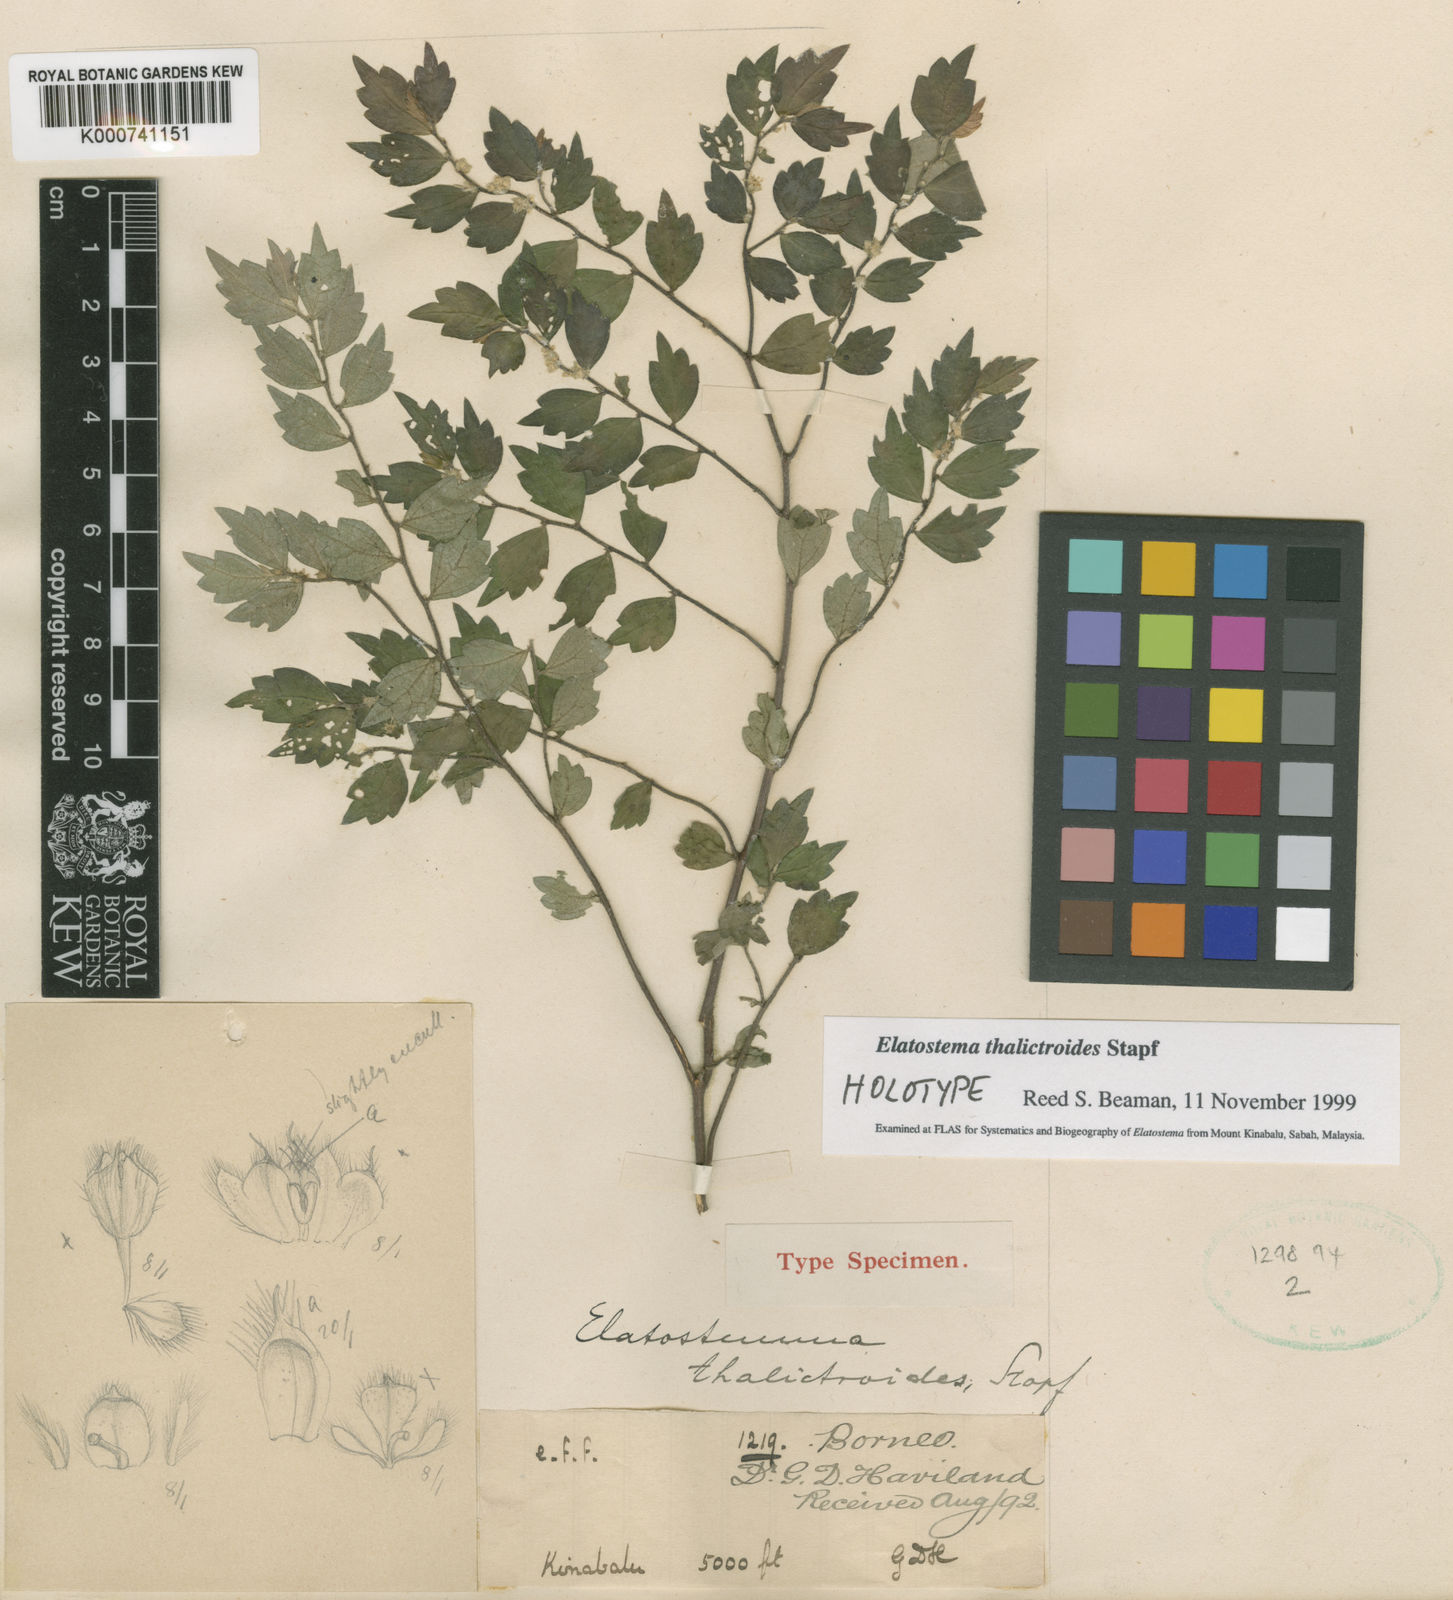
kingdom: Plantae
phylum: Tracheophyta
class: Magnoliopsida
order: Rosales
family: Urticaceae
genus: Elatostema
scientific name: Elatostema thalictroides
